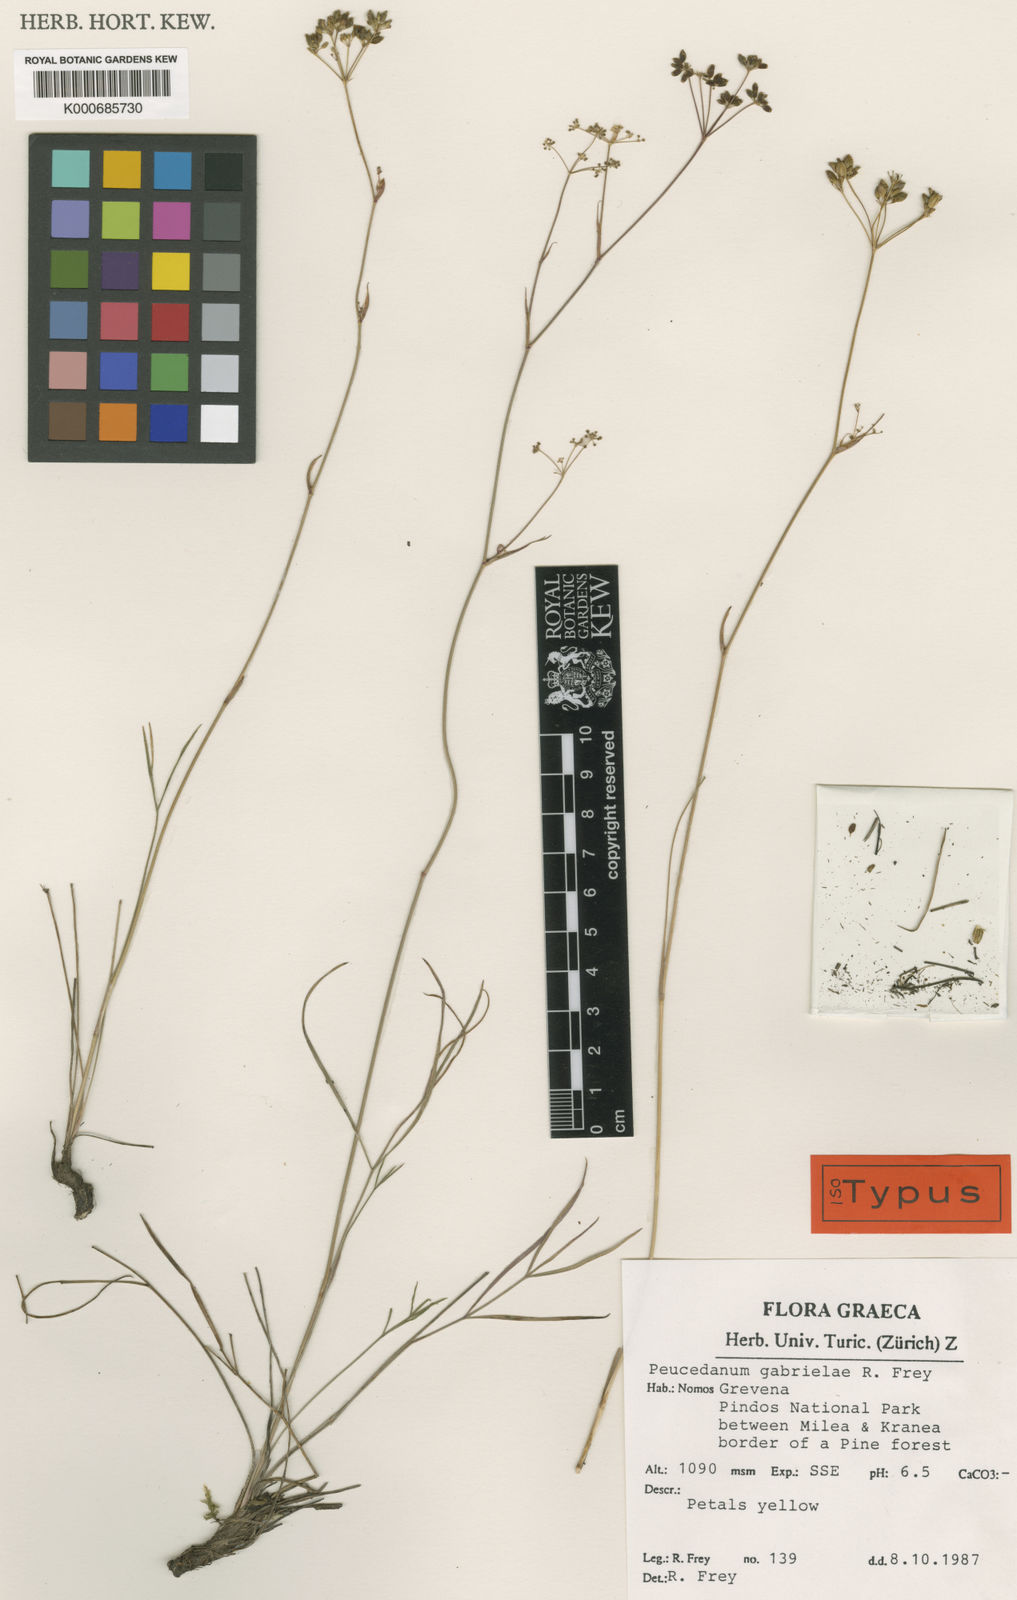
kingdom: Plantae
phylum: Tracheophyta
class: Magnoliopsida
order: Apiales
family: Apiaceae
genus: Peucedanum
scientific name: Peucedanum gabrielae
